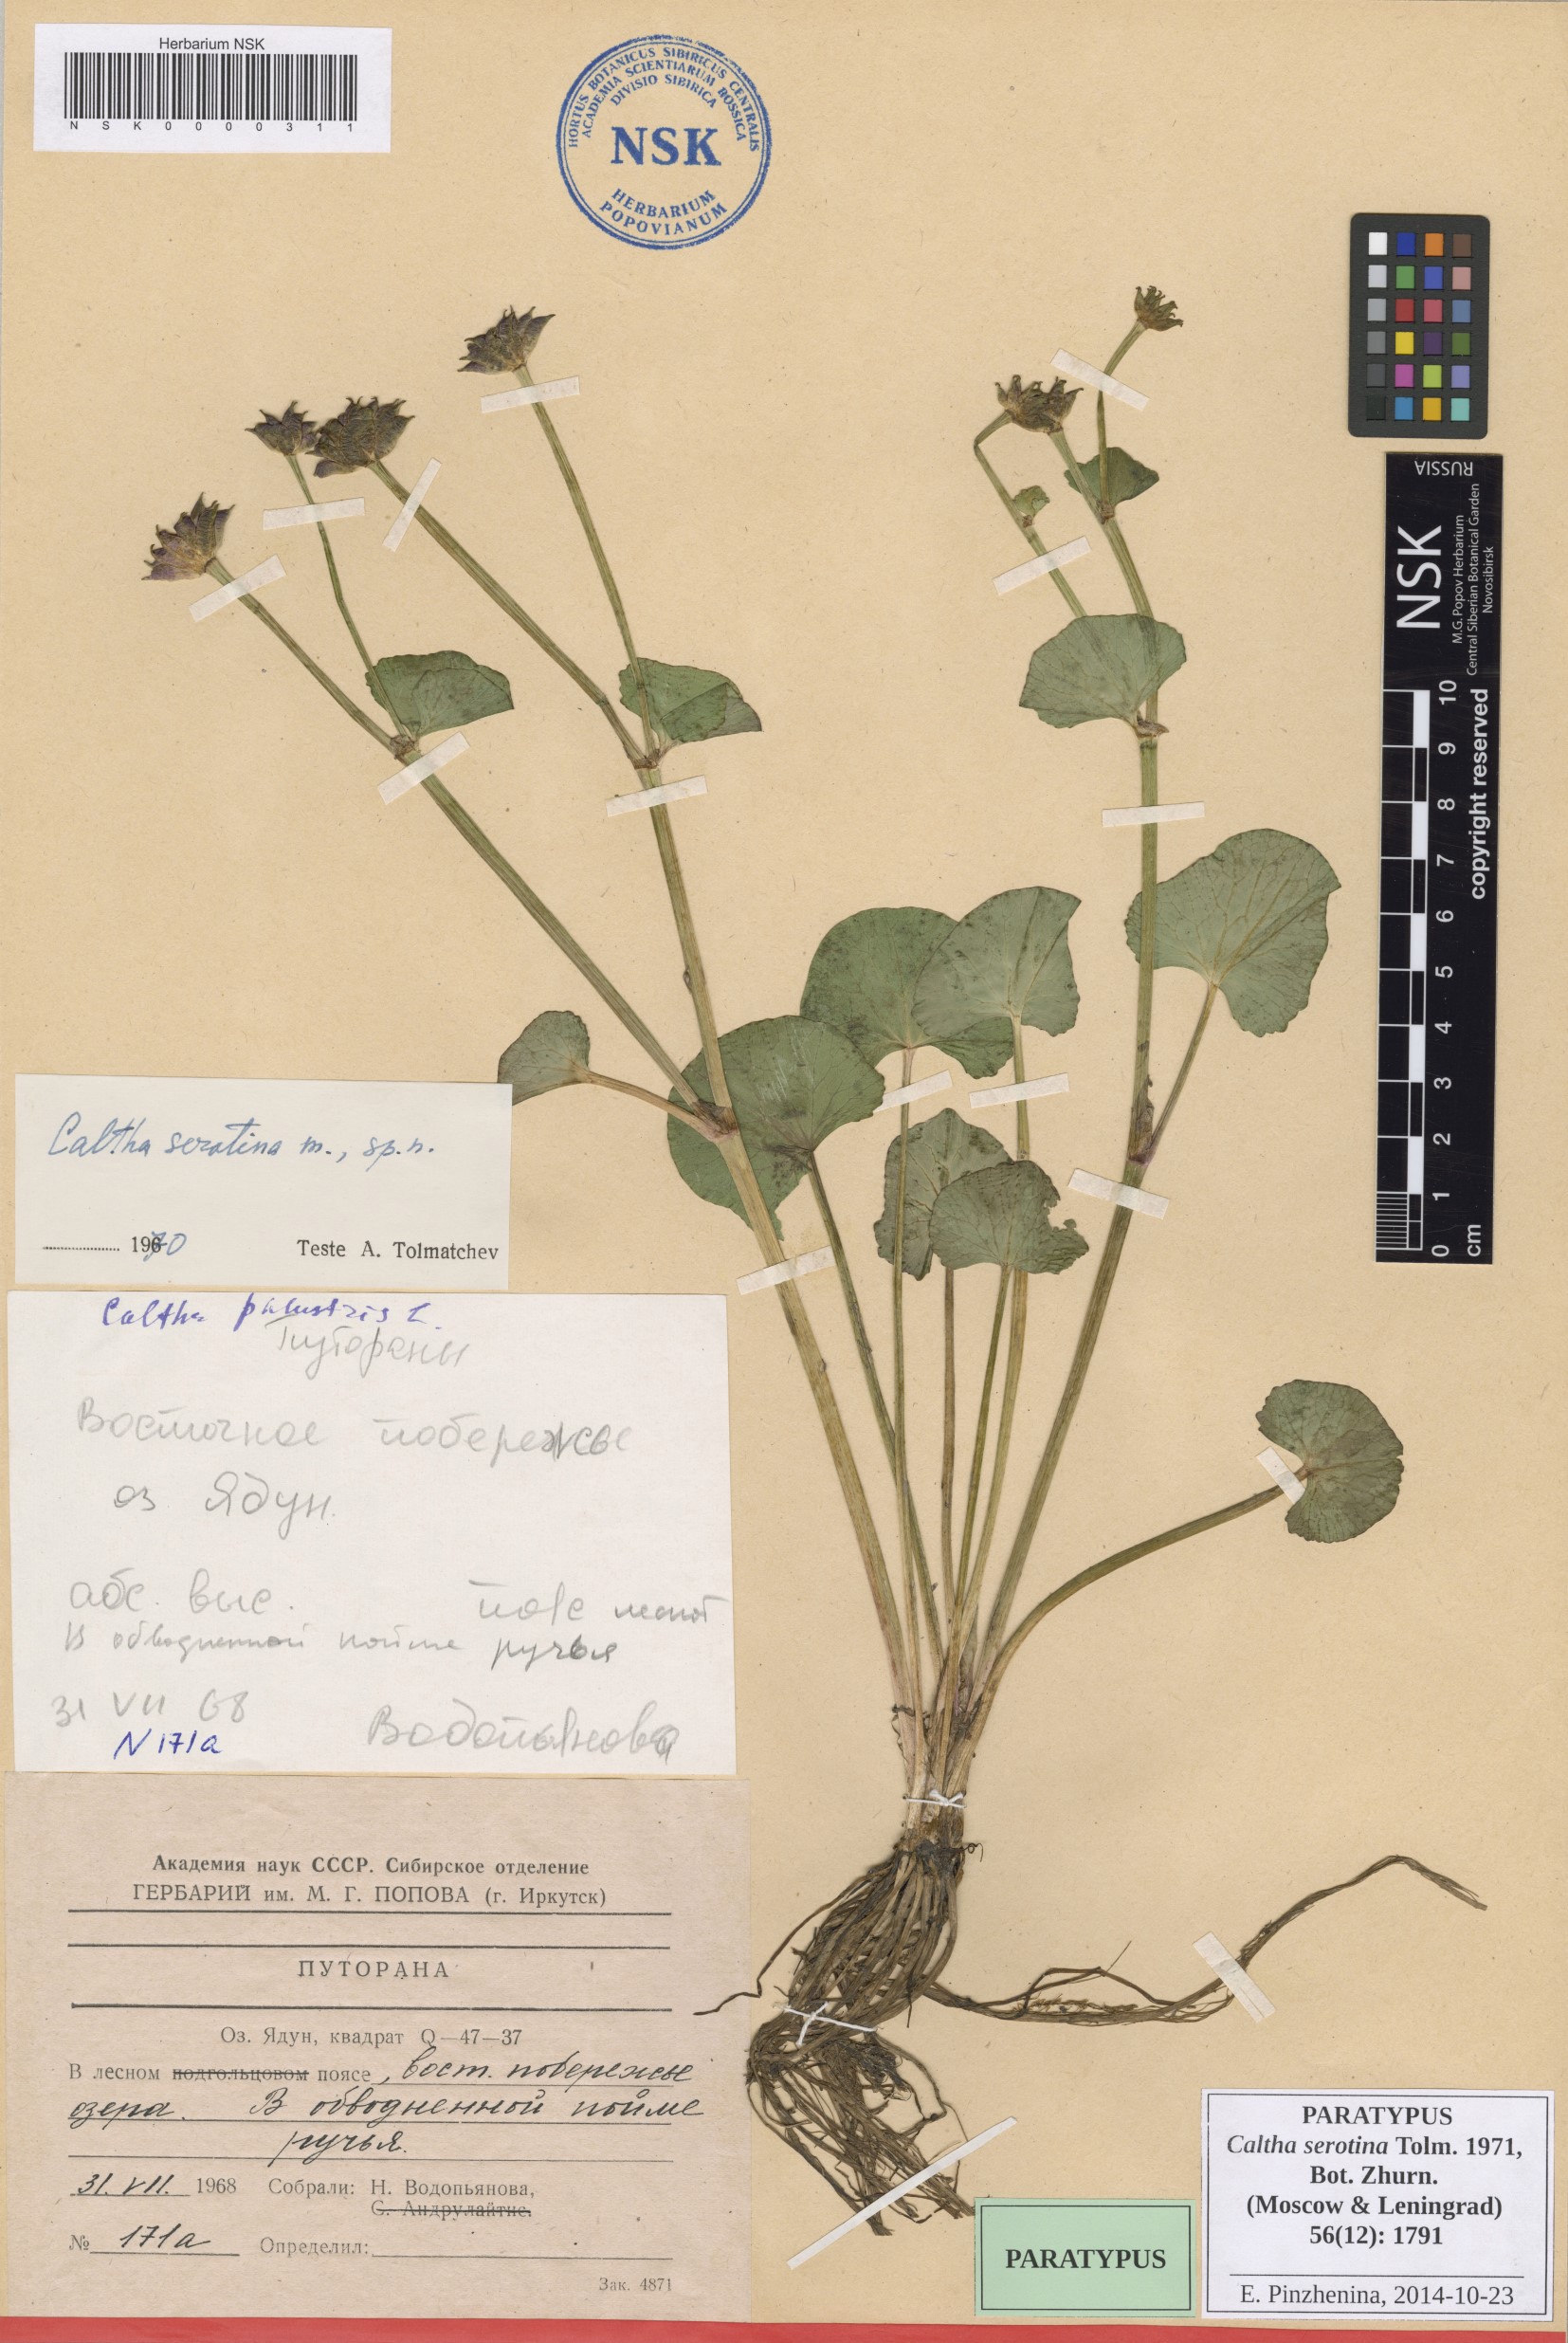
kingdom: Plantae
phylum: Tracheophyta
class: Magnoliopsida
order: Ranunculales
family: Ranunculaceae
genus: Caltha
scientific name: Caltha palustris
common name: Marsh marigold
